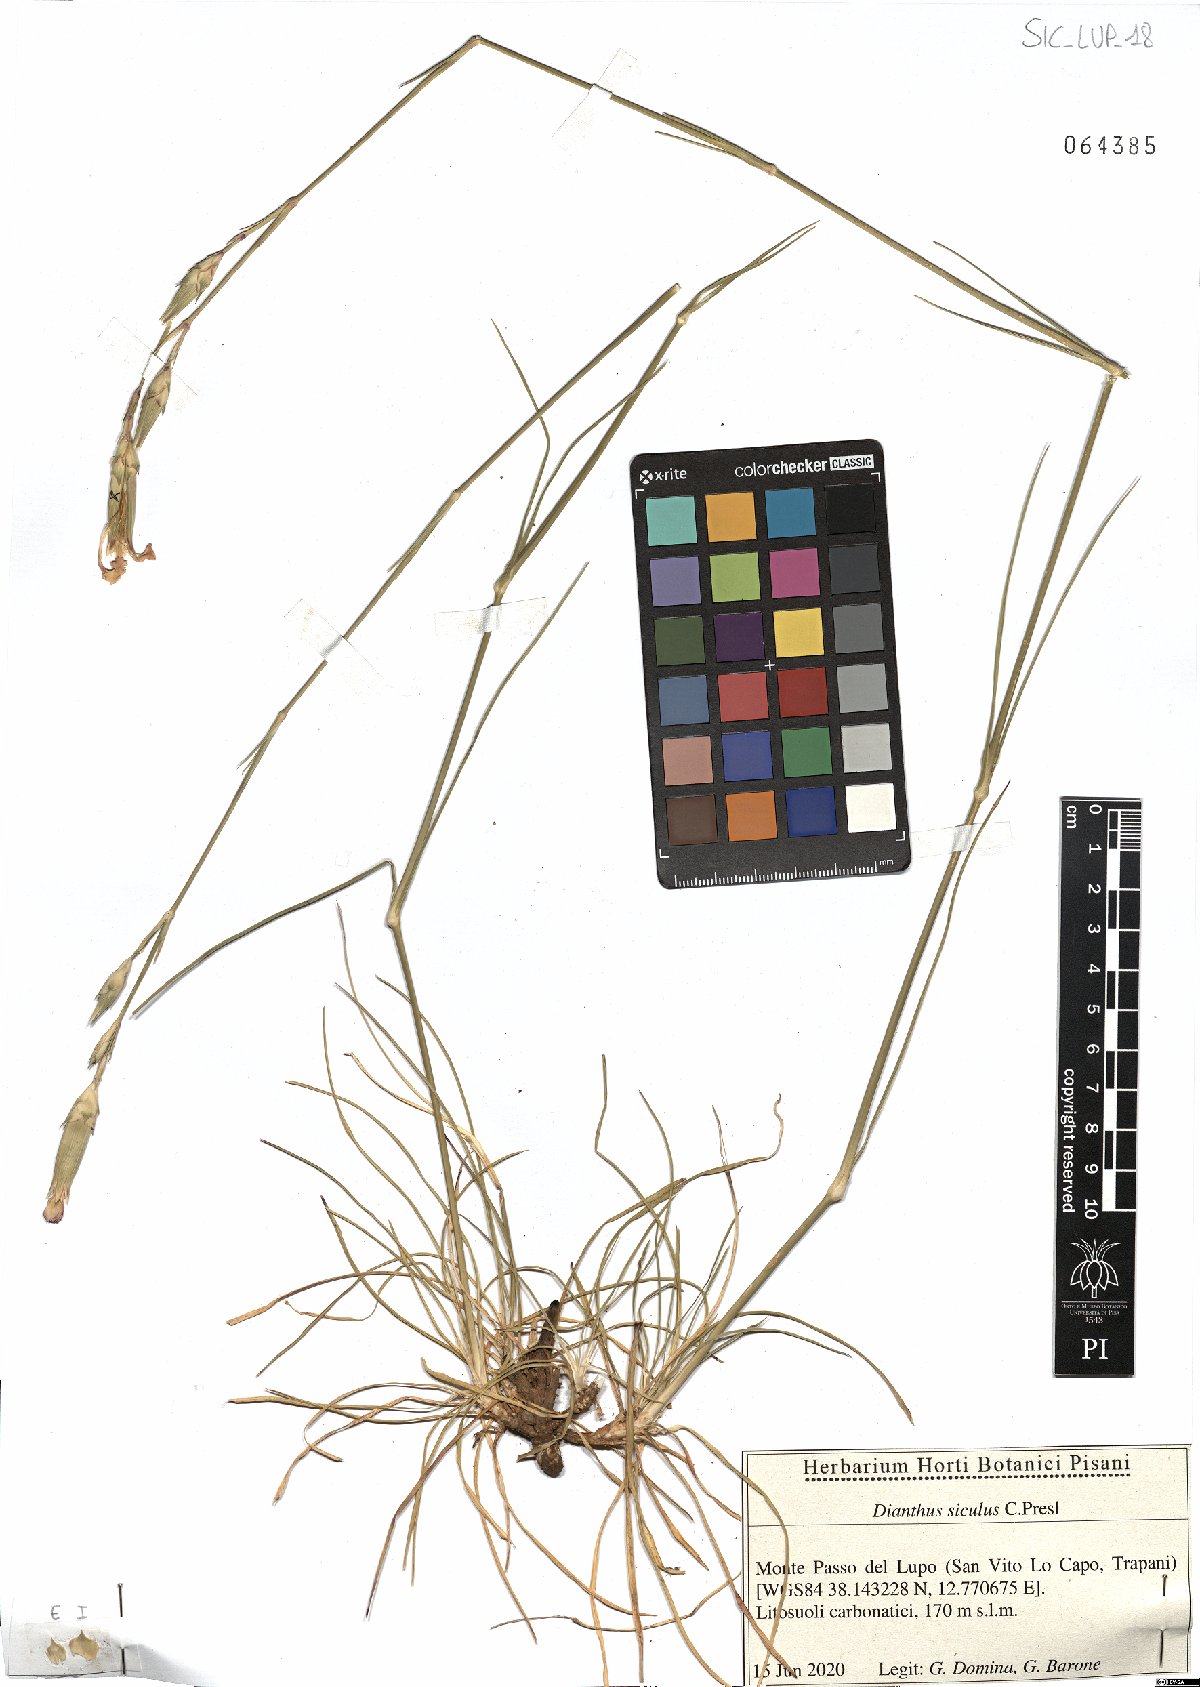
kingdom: Plantae
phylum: Tracheophyta
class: Magnoliopsida
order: Caryophyllales
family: Caryophyllaceae
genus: Dianthus
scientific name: Dianthus siculus
